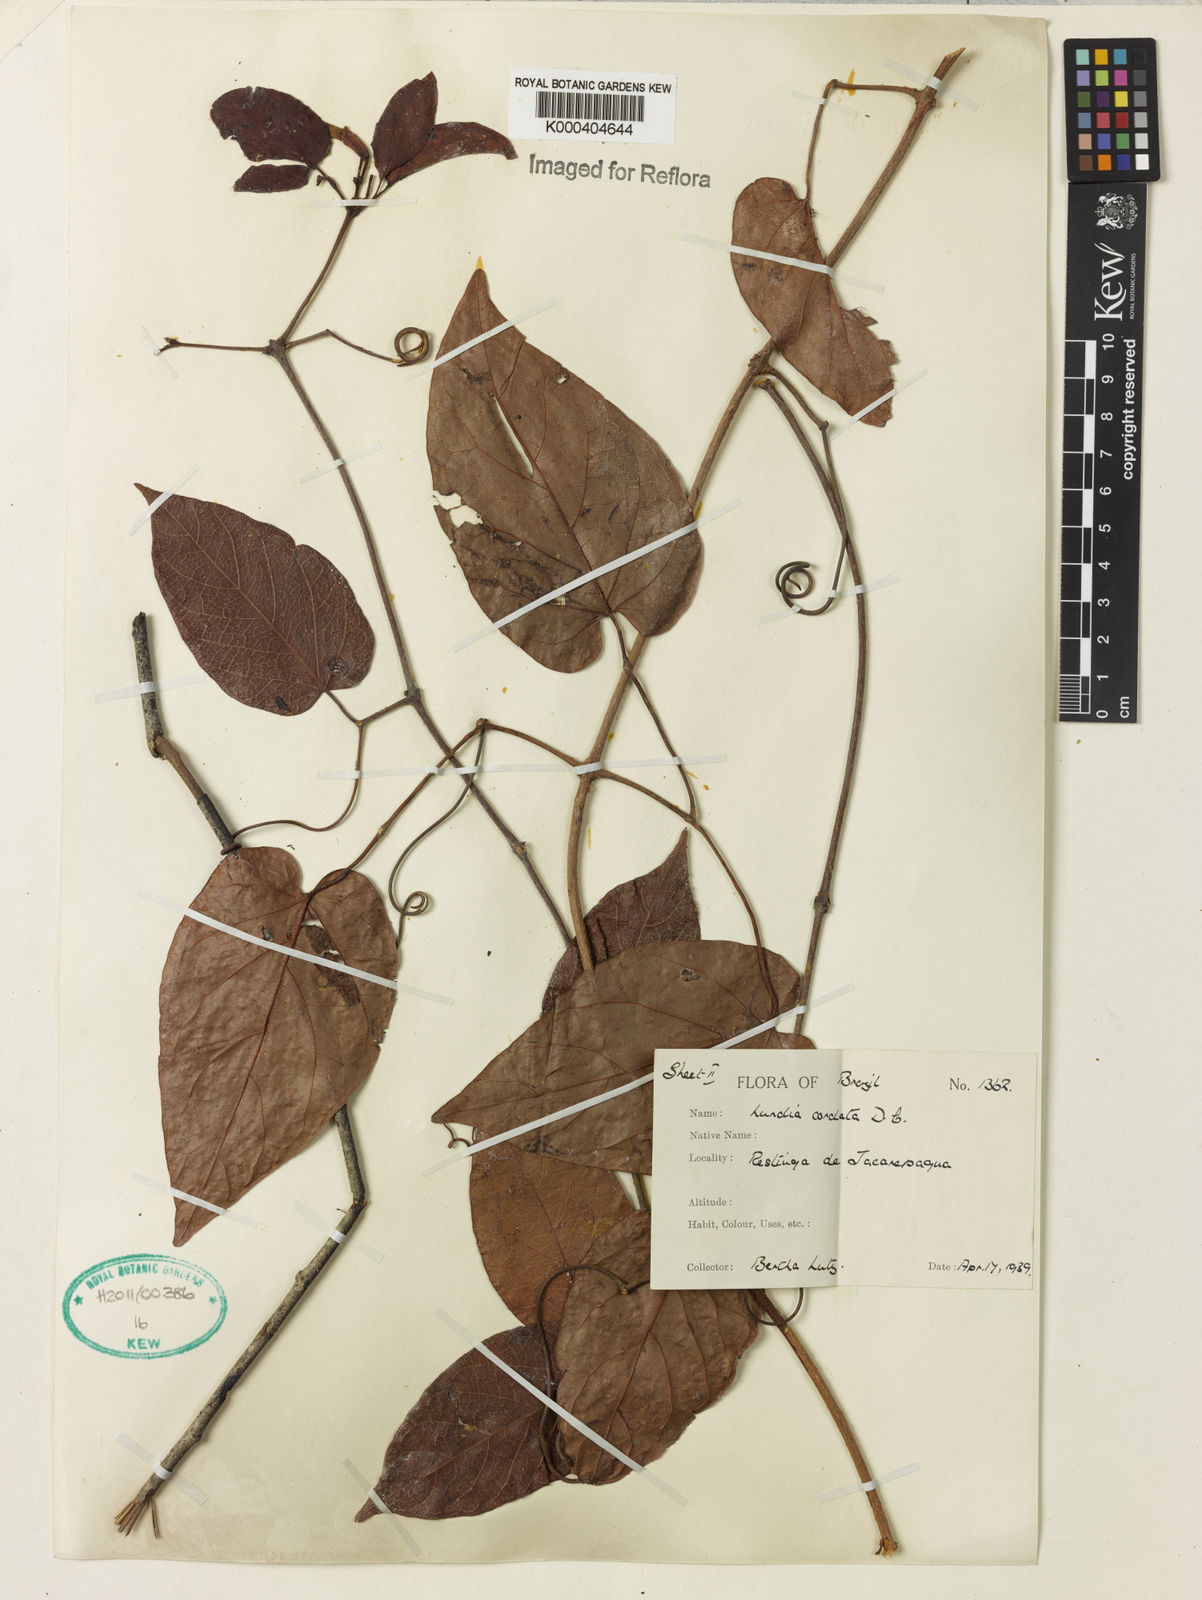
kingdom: Plantae
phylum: Tracheophyta
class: Magnoliopsida
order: Lamiales
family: Bignoniaceae
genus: Lundia
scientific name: Lundia corymbifera
